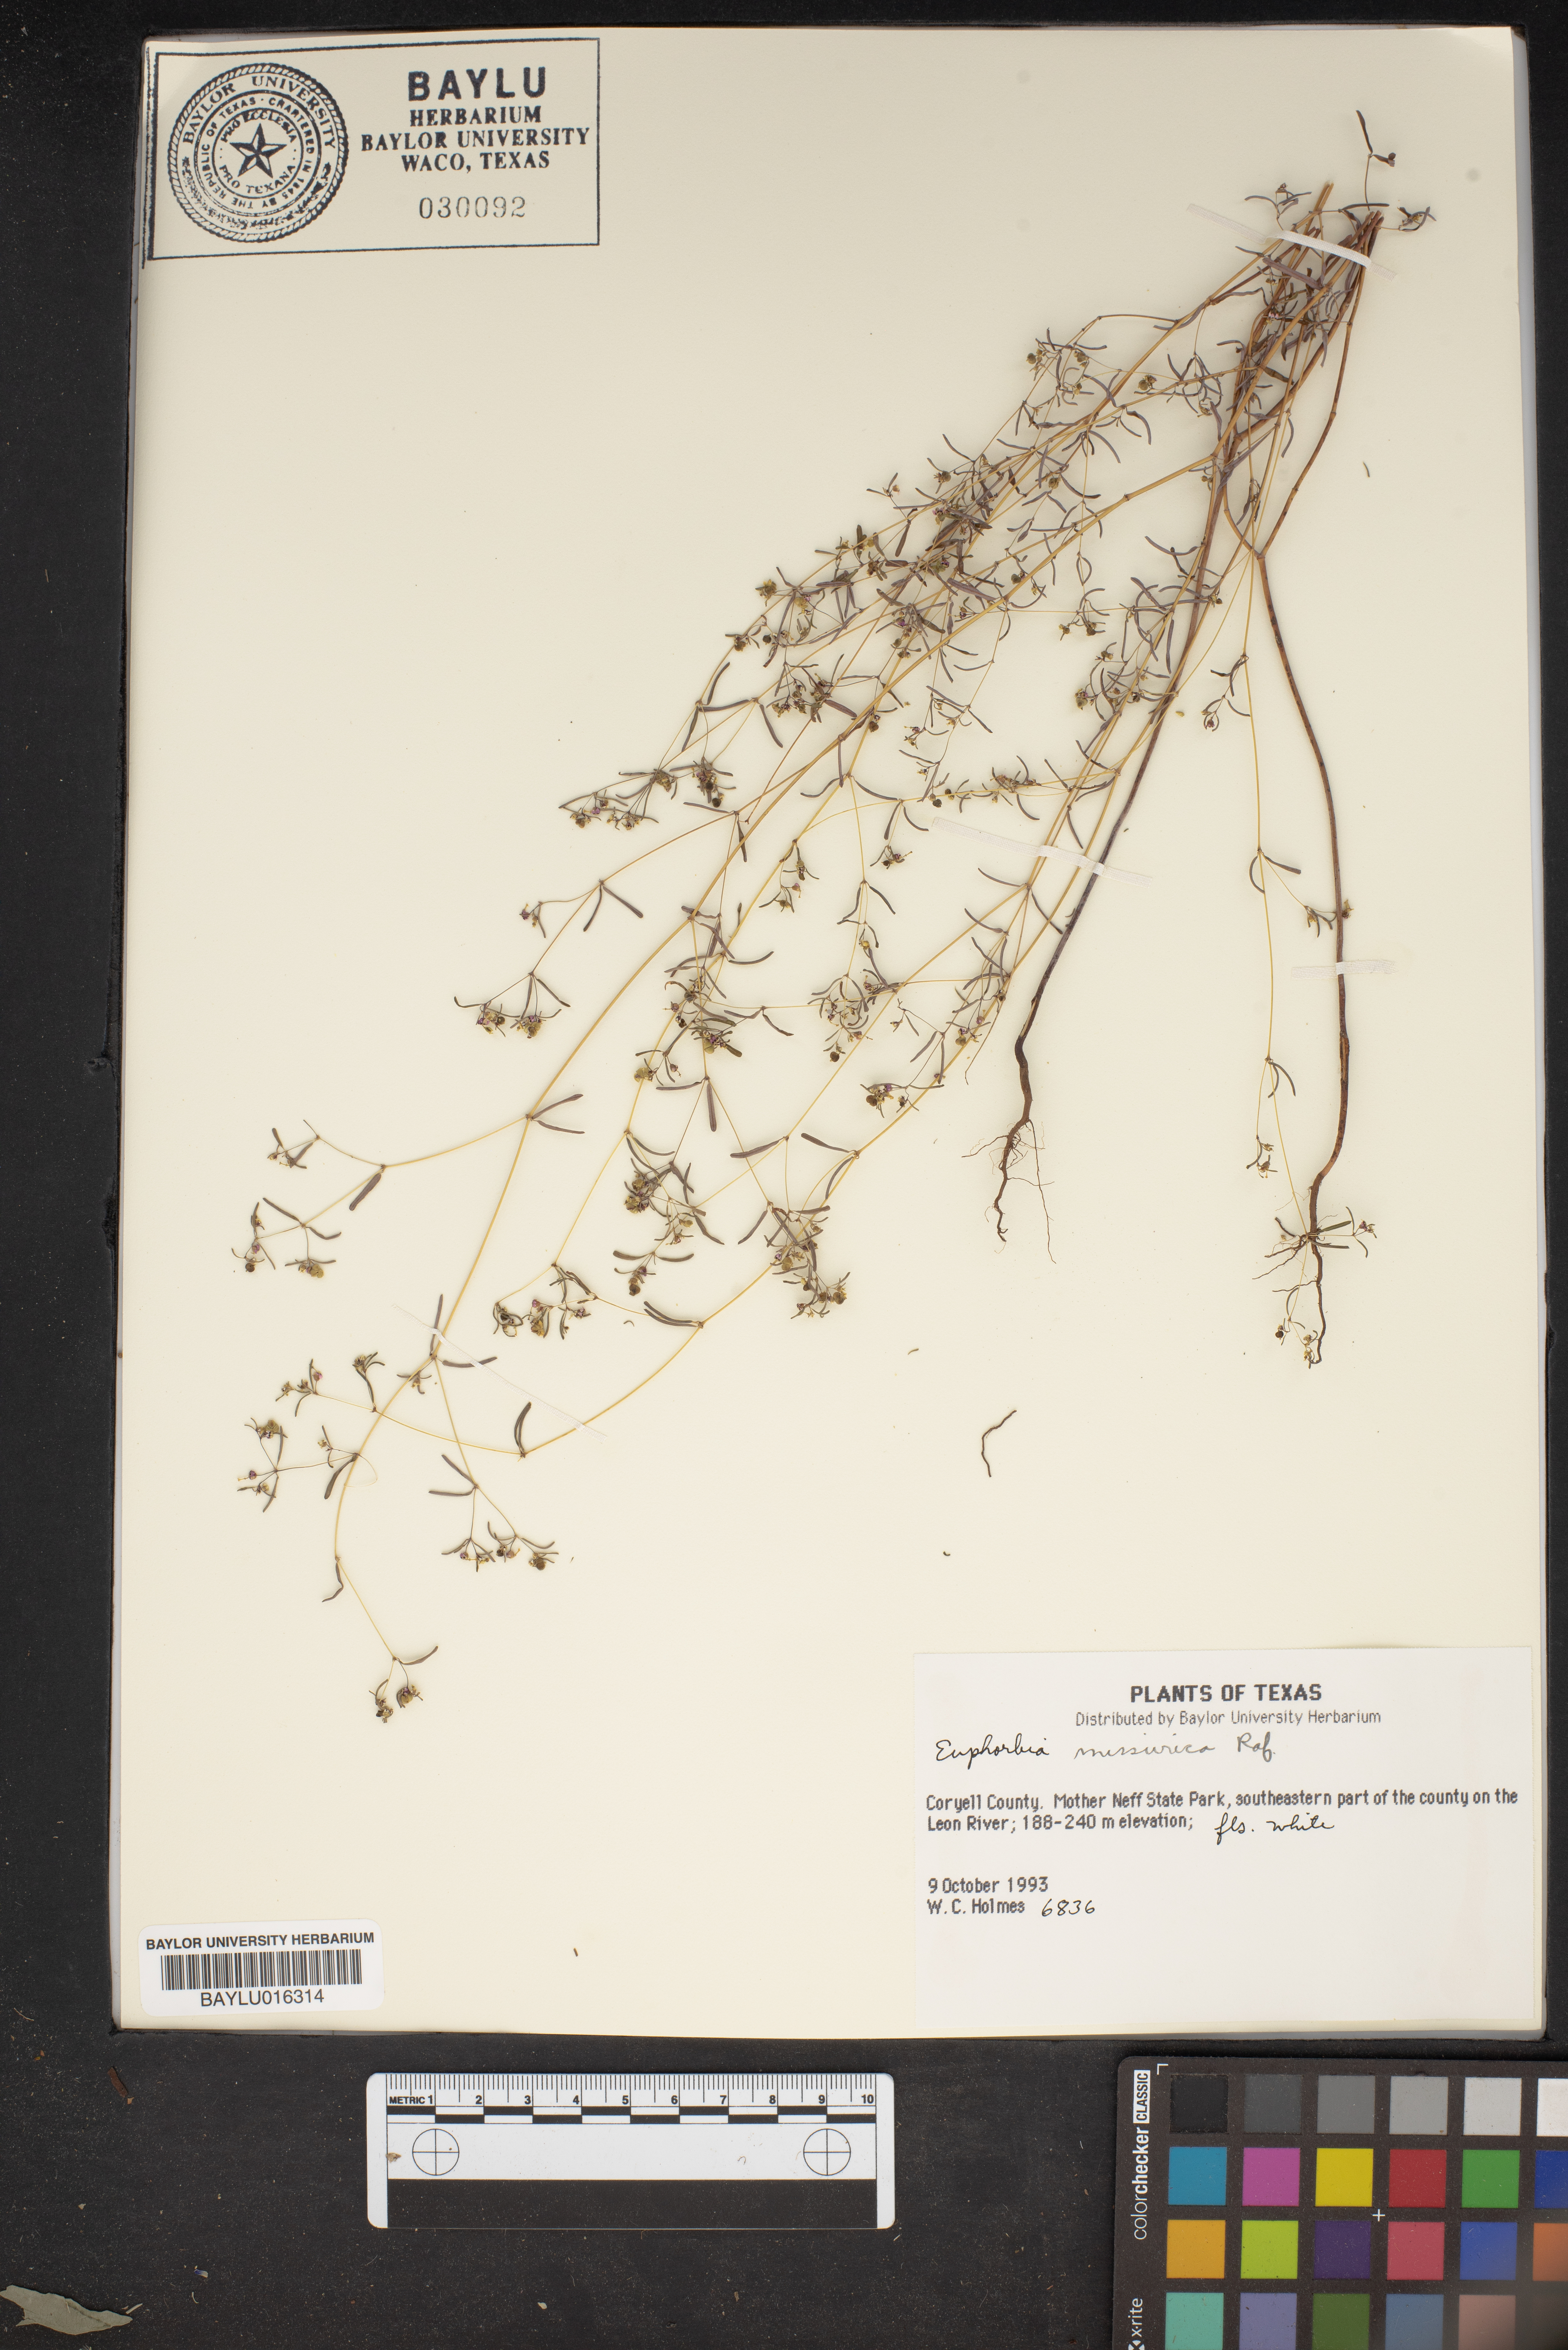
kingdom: Plantae
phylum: Tracheophyta
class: Magnoliopsida
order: Malpighiales
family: Euphorbiaceae
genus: Euphorbia
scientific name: Euphorbia missurica
